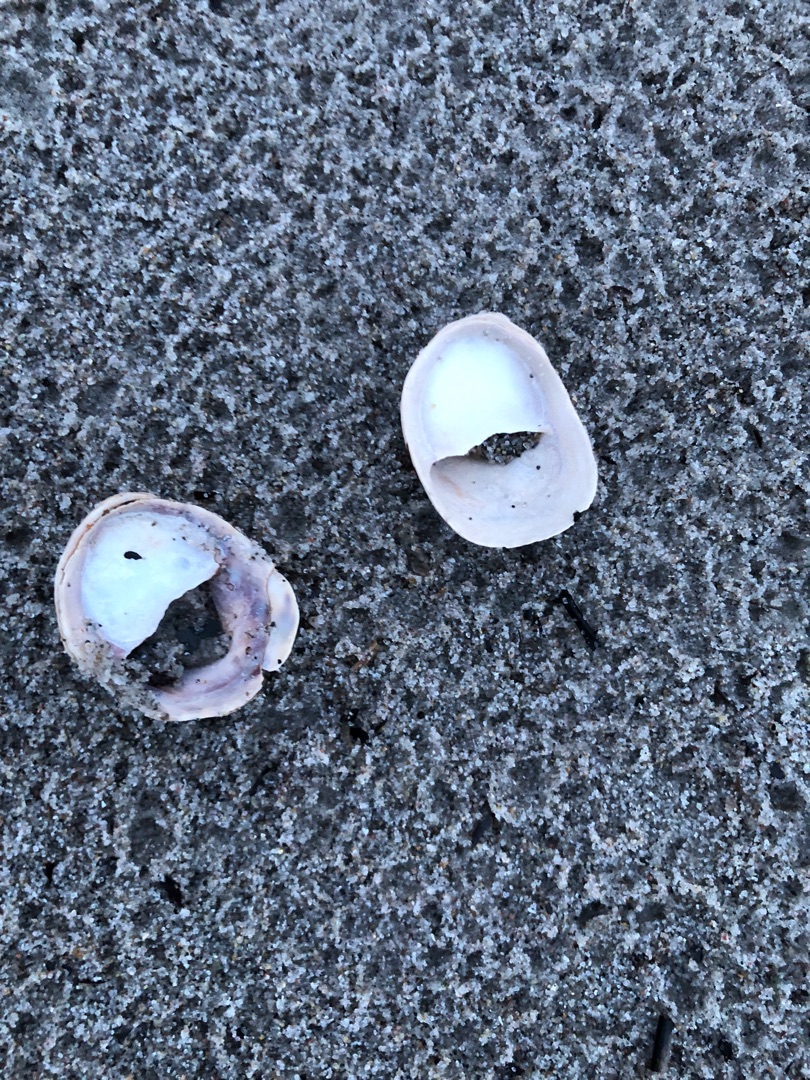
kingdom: Animalia
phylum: Mollusca
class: Gastropoda
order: Littorinimorpha
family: Calyptraeidae
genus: Crepidula
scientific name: Crepidula fornicata
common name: Tøffelsnegl
